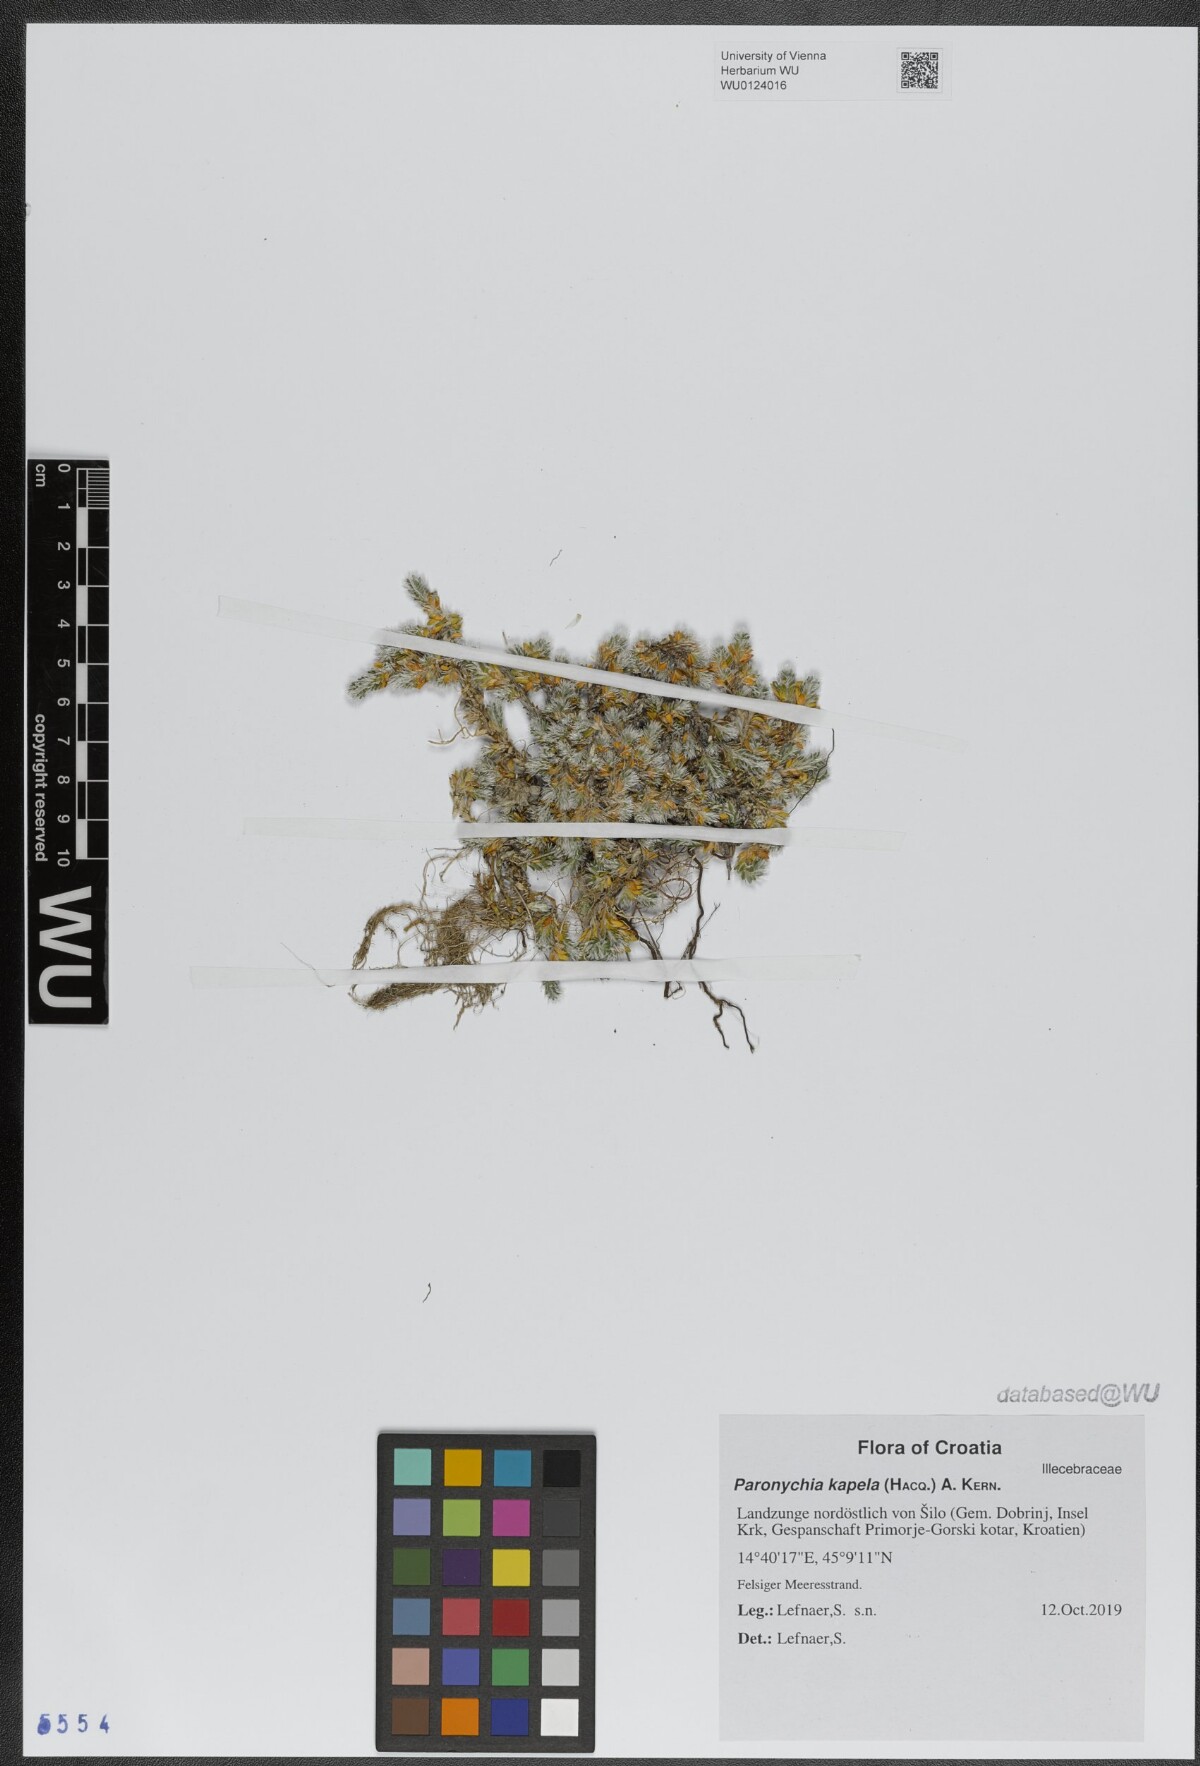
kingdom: Plantae
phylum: Tracheophyta
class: Magnoliopsida
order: Caryophyllales
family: Caryophyllaceae
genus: Paronychia
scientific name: Paronychia kapela
